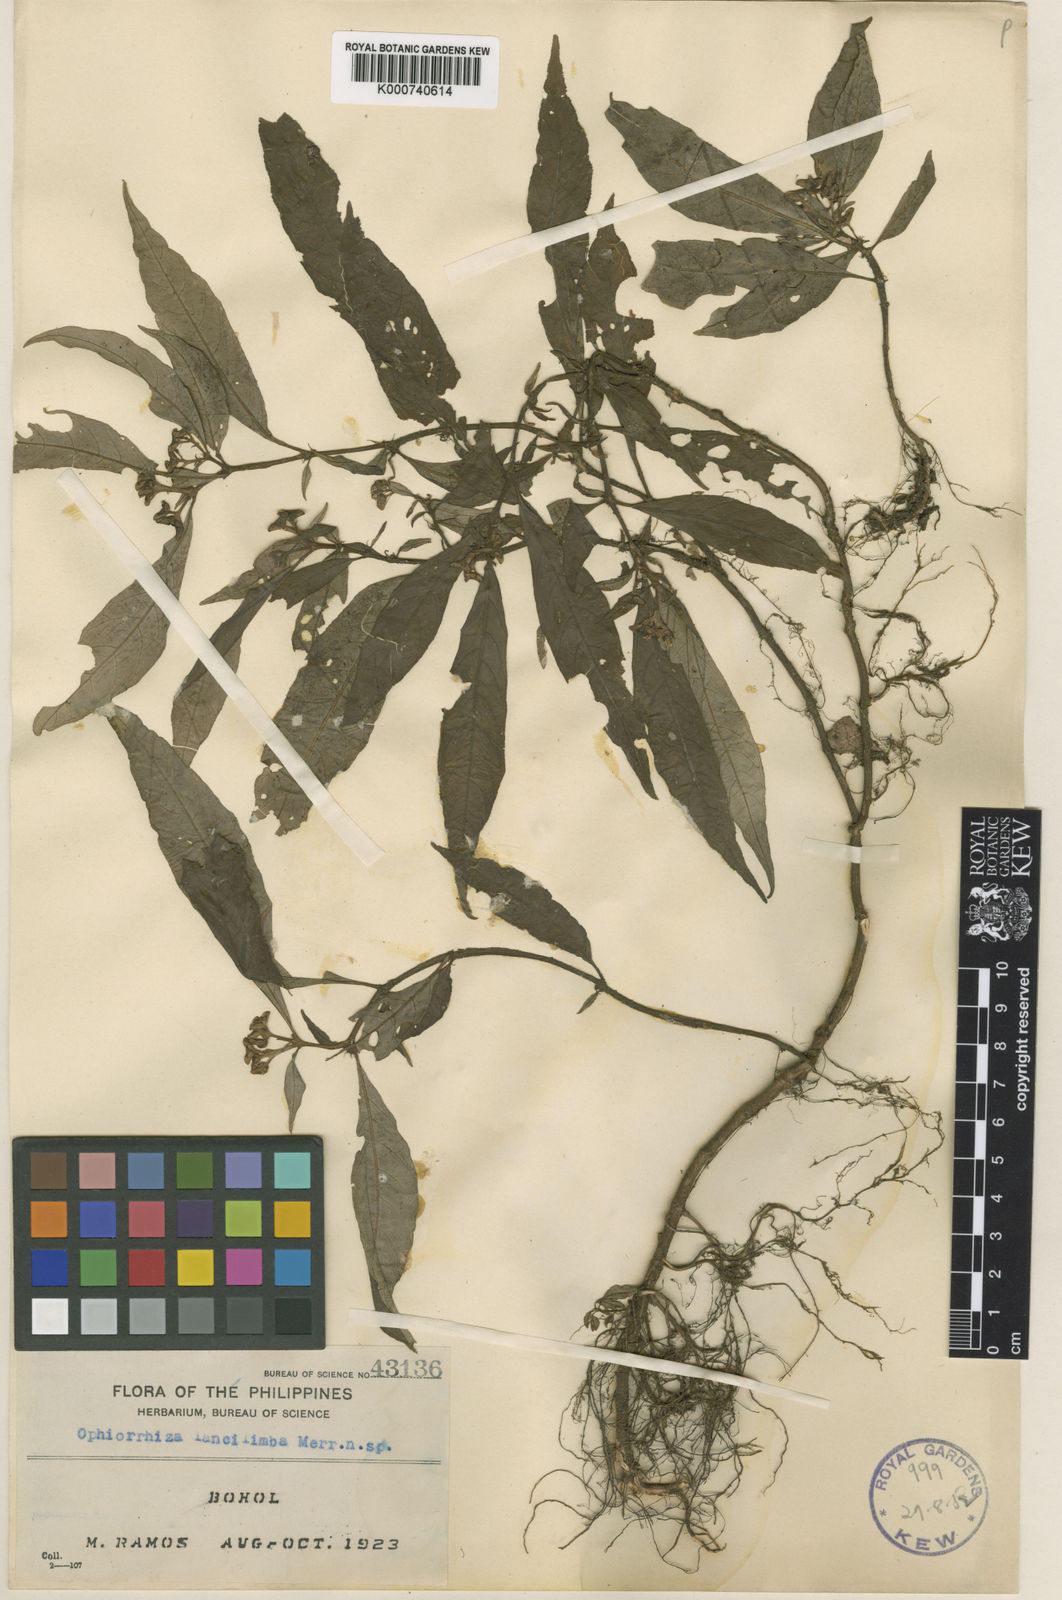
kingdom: Plantae
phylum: Tracheophyta
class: Magnoliopsida
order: Gentianales
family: Rubiaceae
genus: Ophiorrhiza
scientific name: Ophiorrhiza lancilimba
